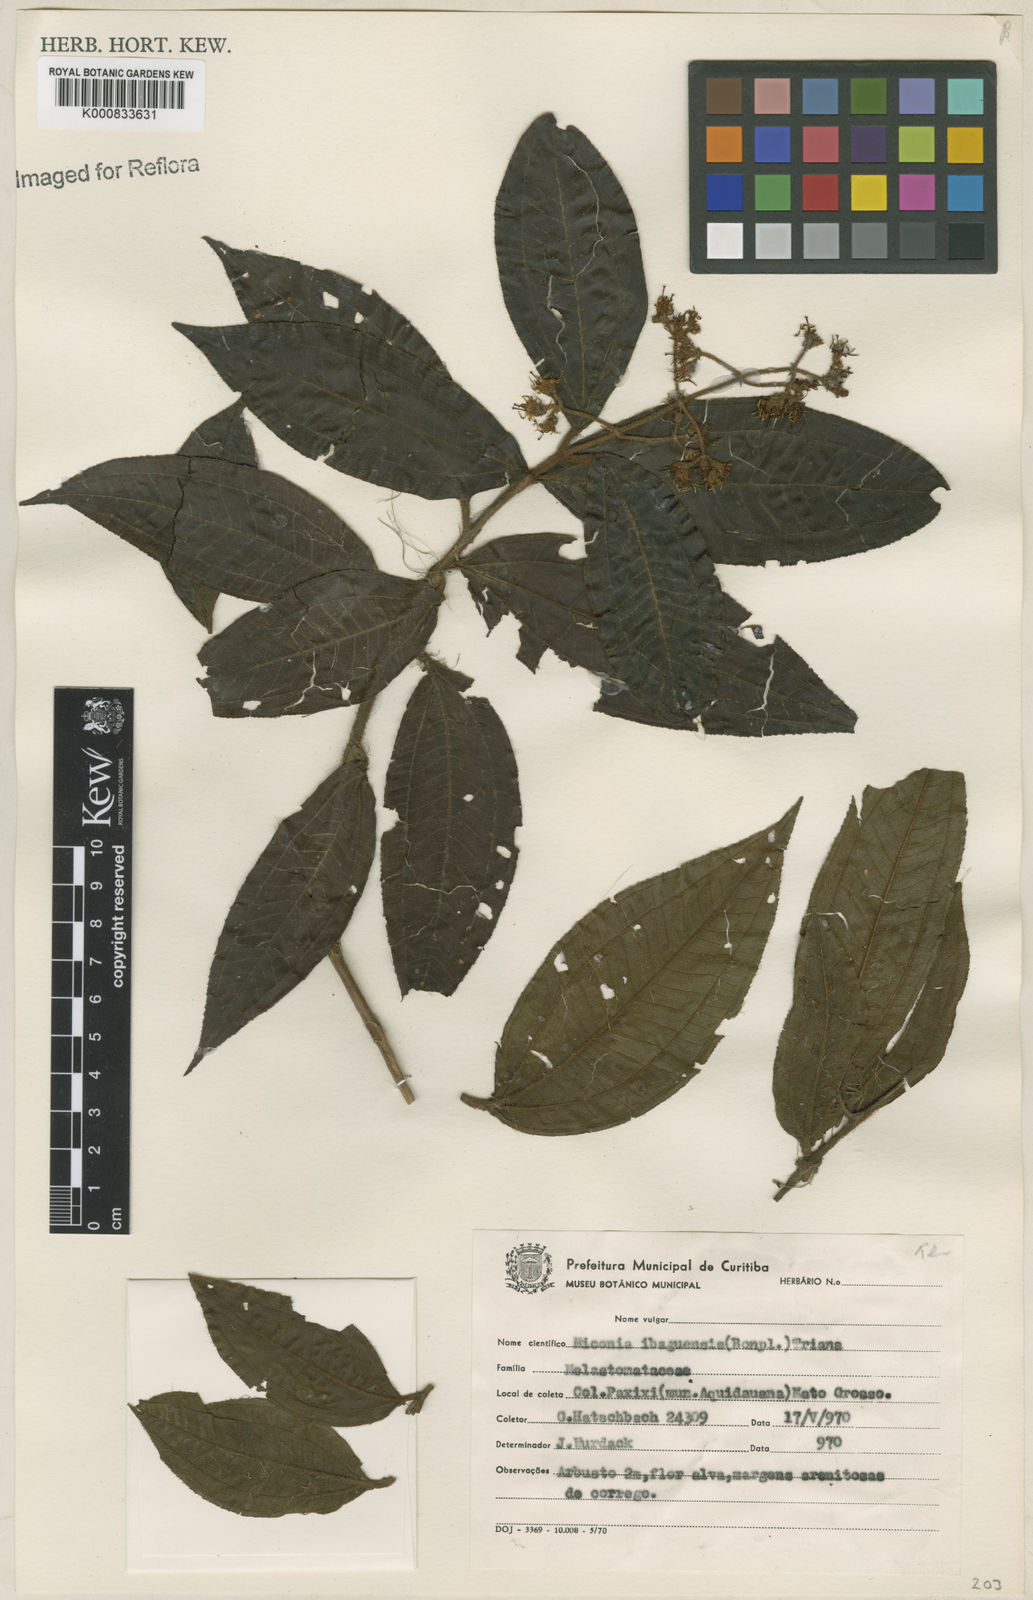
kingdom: Plantae
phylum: Tracheophyta
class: Magnoliopsida
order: Myrtales
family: Melastomataceae
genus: Miconia
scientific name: Miconia ibaguensis
